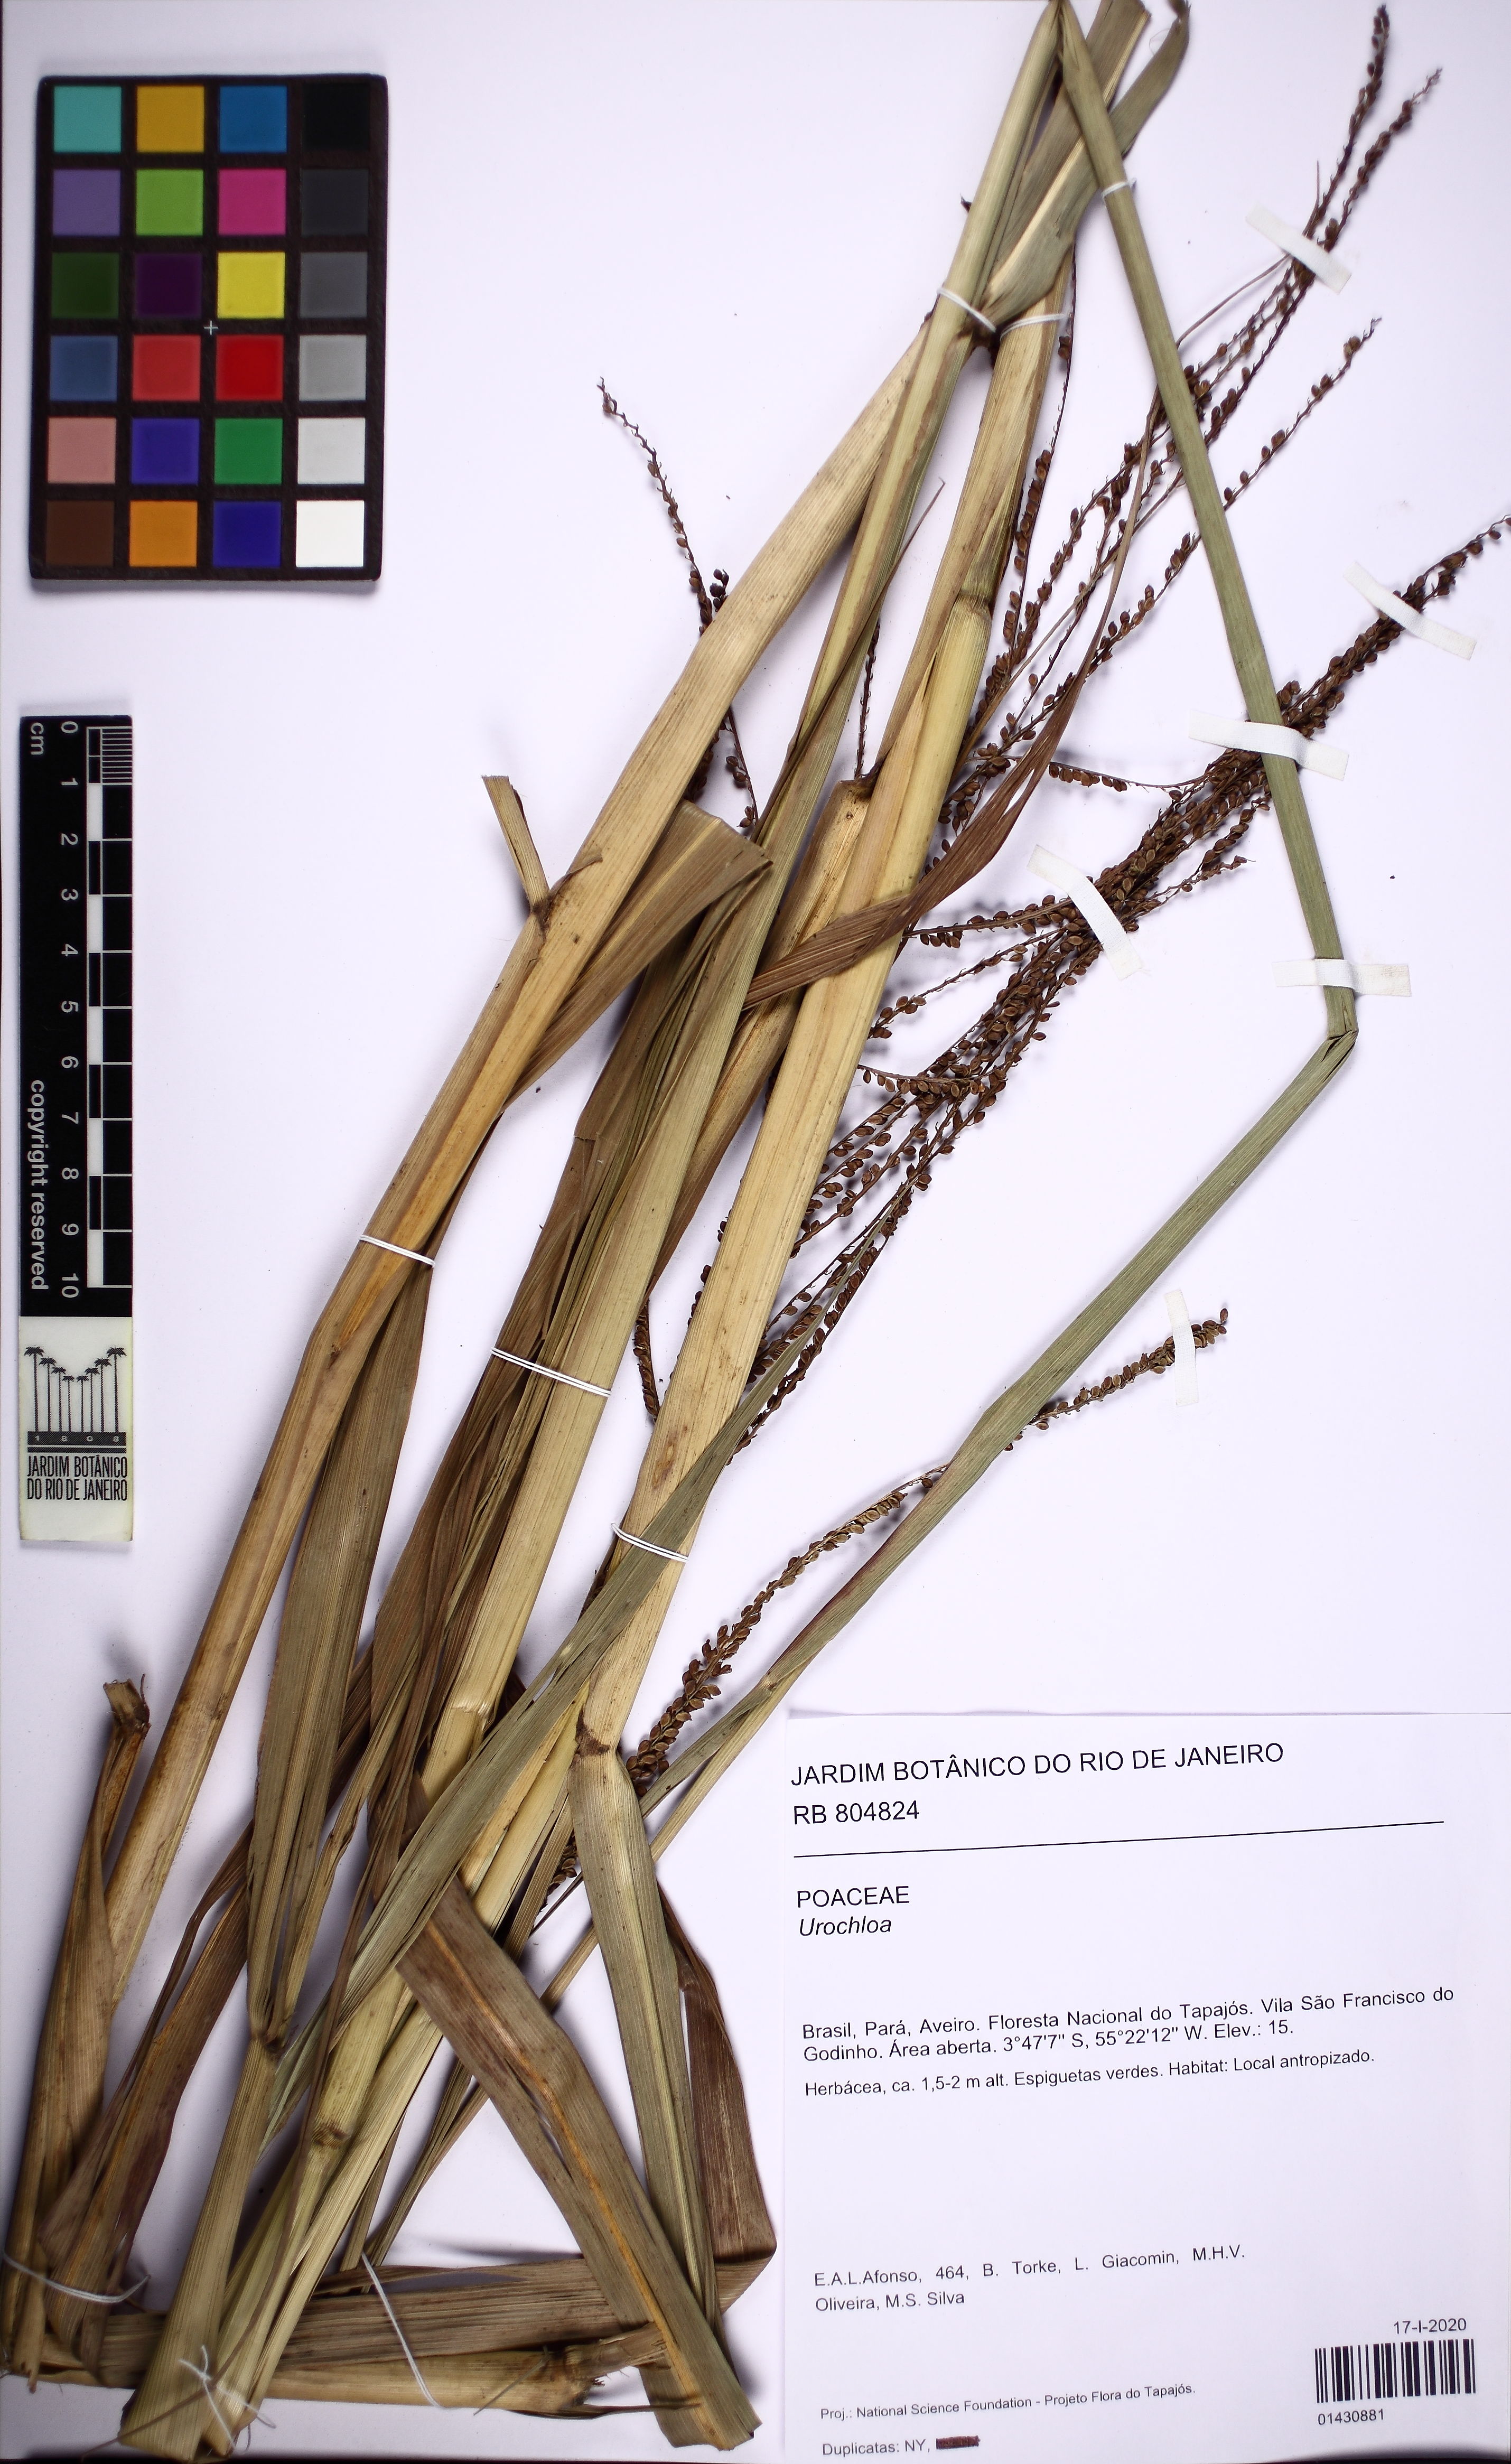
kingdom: Plantae
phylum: Tracheophyta
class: Liliopsida
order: Poales
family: Poaceae
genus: Urochloa
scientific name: Urochloa
